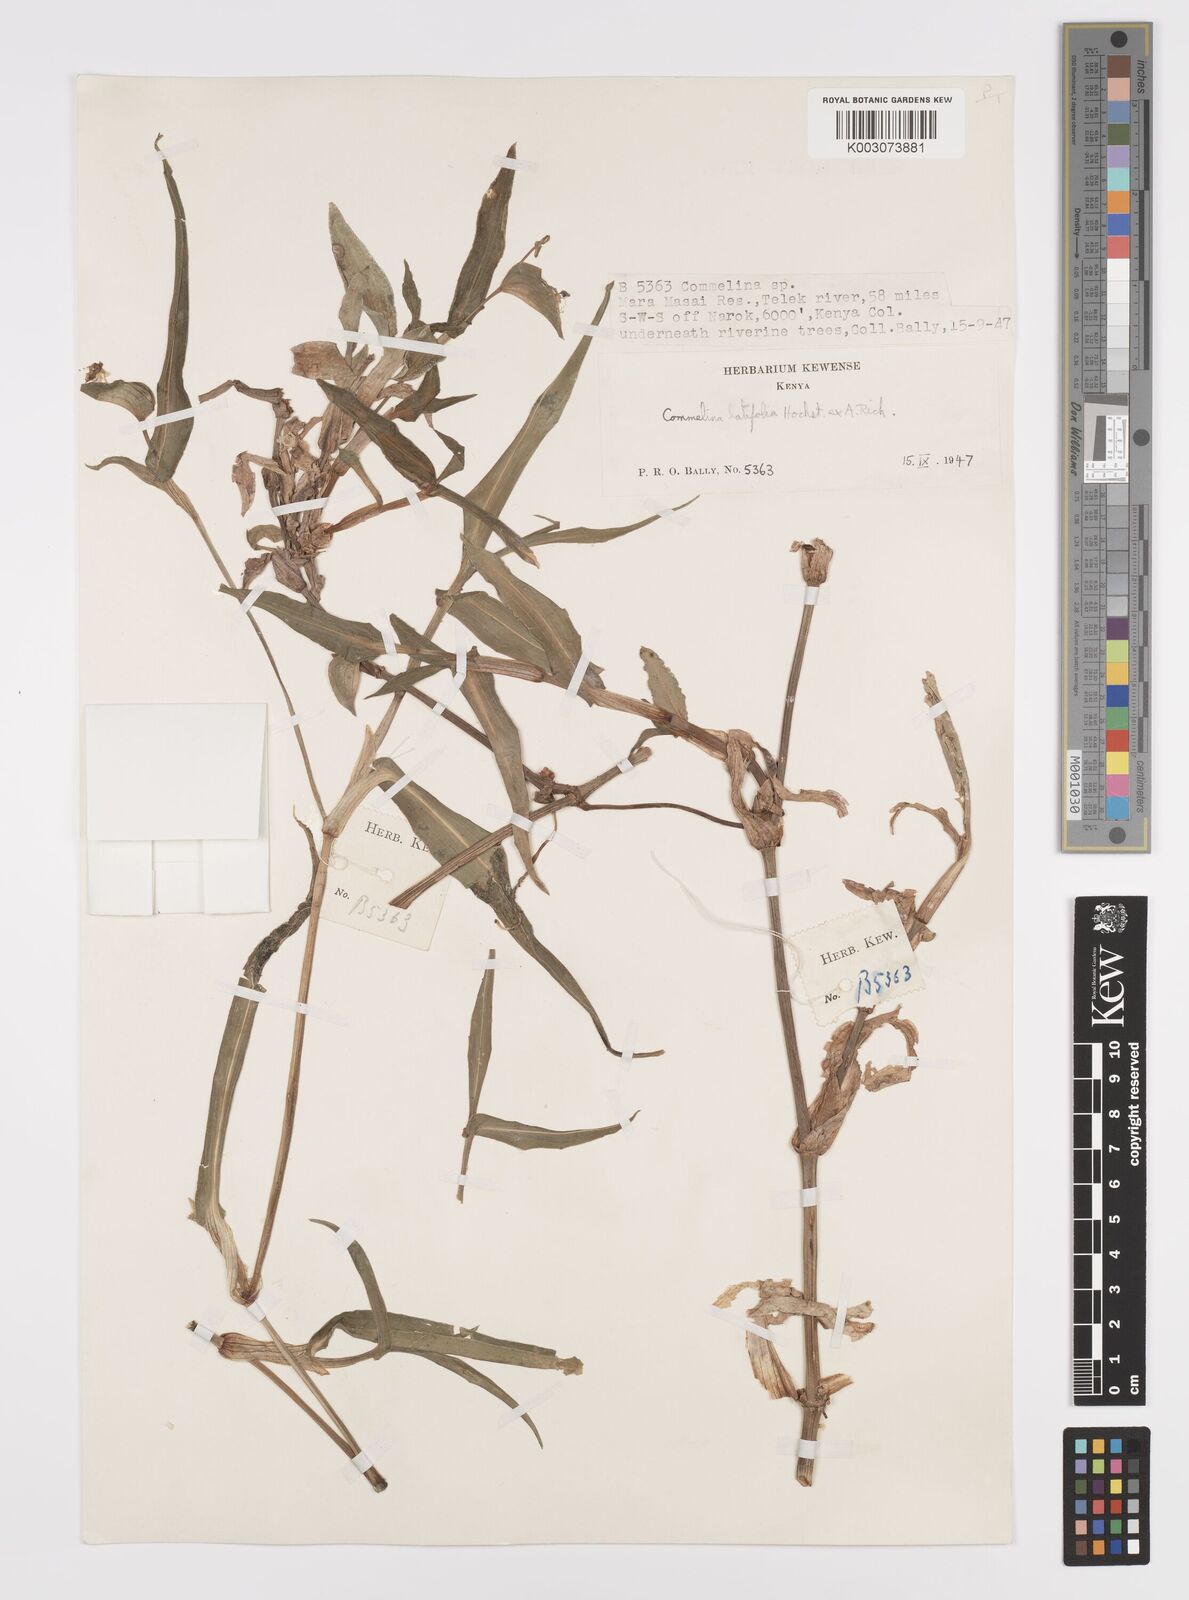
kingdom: Plantae
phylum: Tracheophyta
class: Liliopsida
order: Commelinales
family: Commelinaceae
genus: Commelina
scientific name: Commelina latifolia
